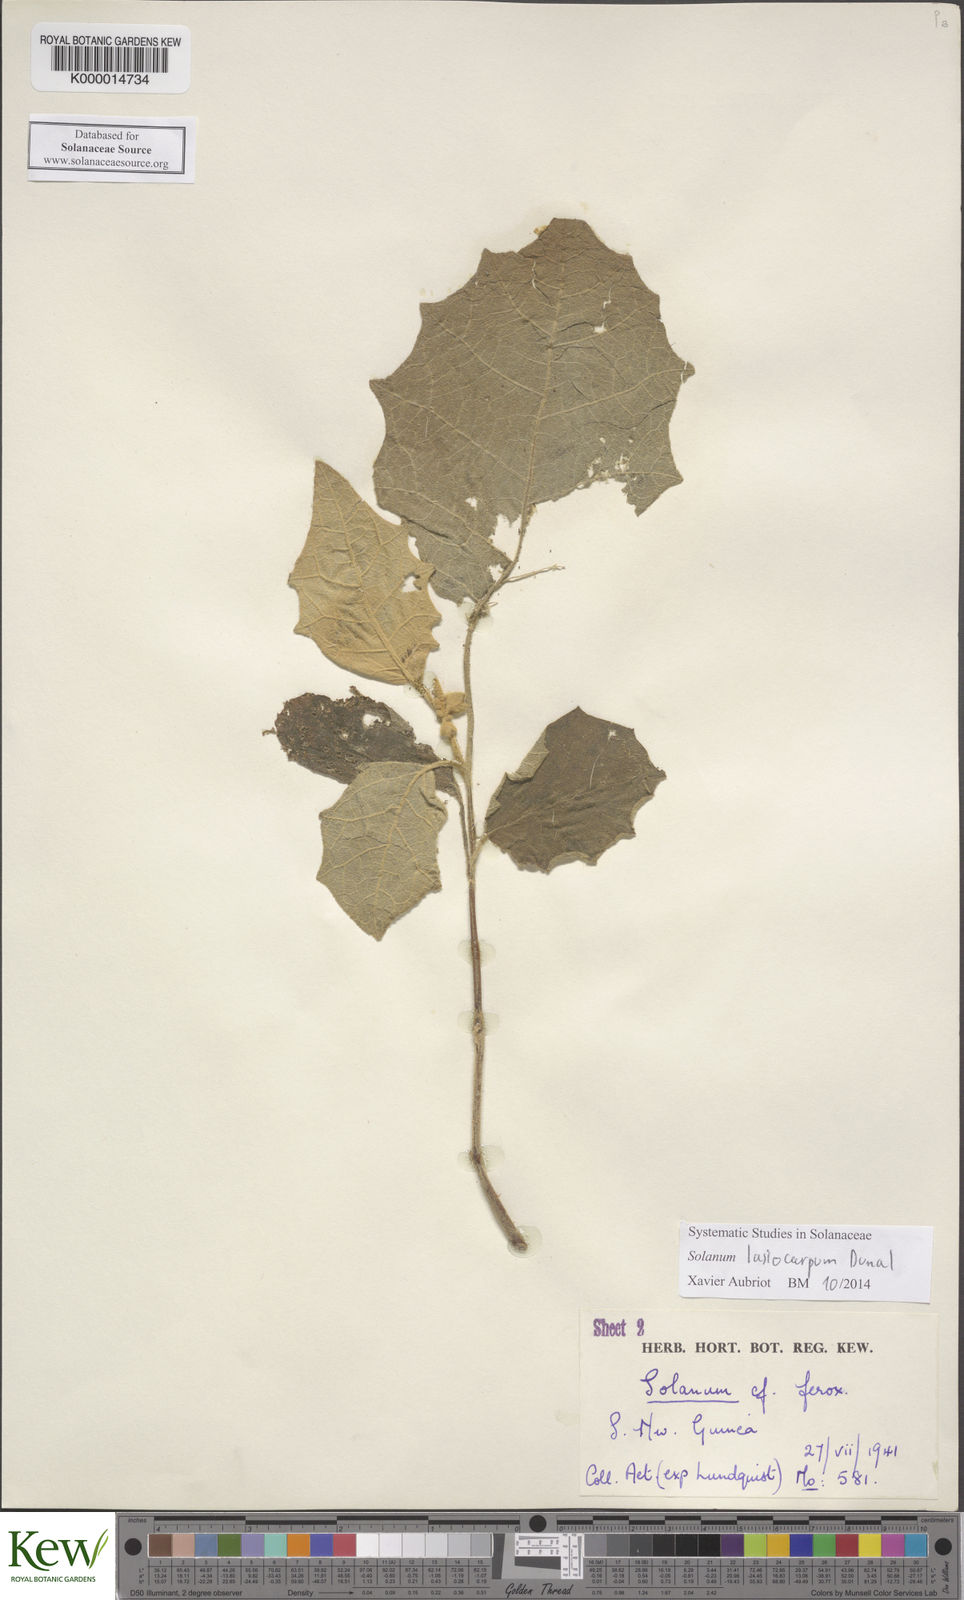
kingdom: Plantae
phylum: Tracheophyta
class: Magnoliopsida
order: Solanales
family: Solanaceae
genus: Solanum
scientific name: Solanum lasiocarpum
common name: Indian nightshade
